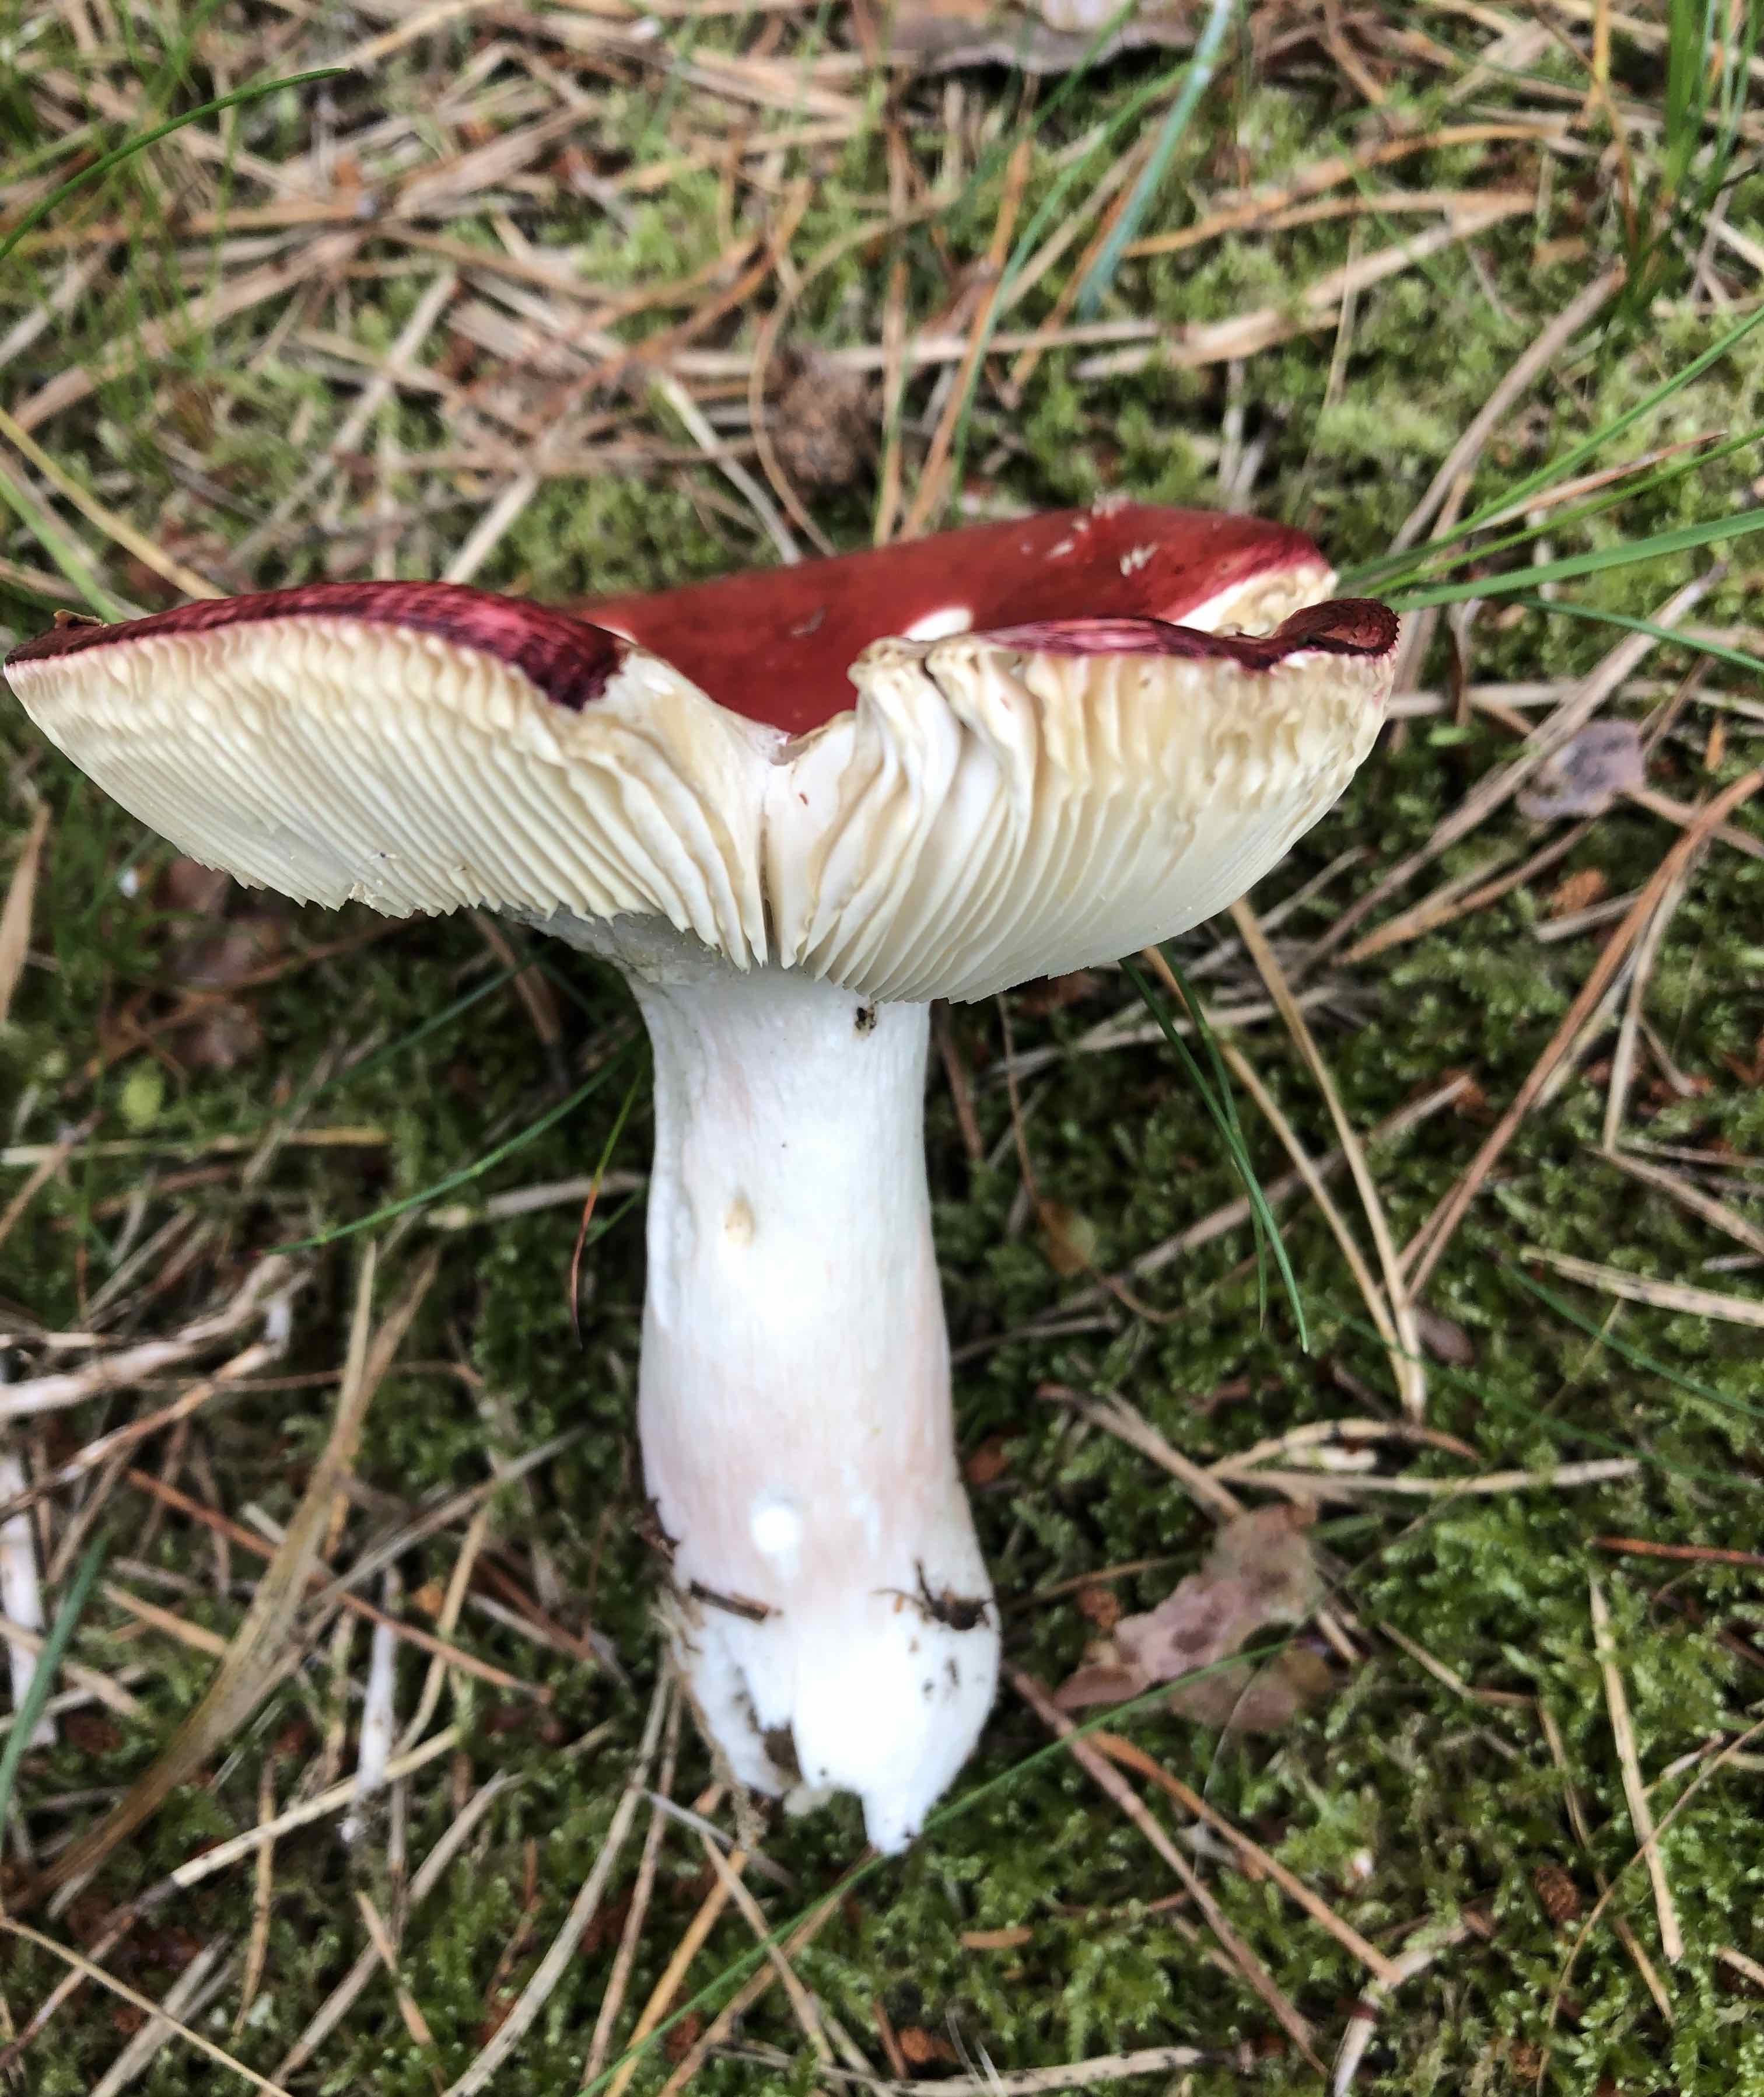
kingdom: Fungi
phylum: Basidiomycota
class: Agaricomycetes
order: Russulales
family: Russulaceae
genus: Russula
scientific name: Russula paludosa
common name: prægtig skørhat
